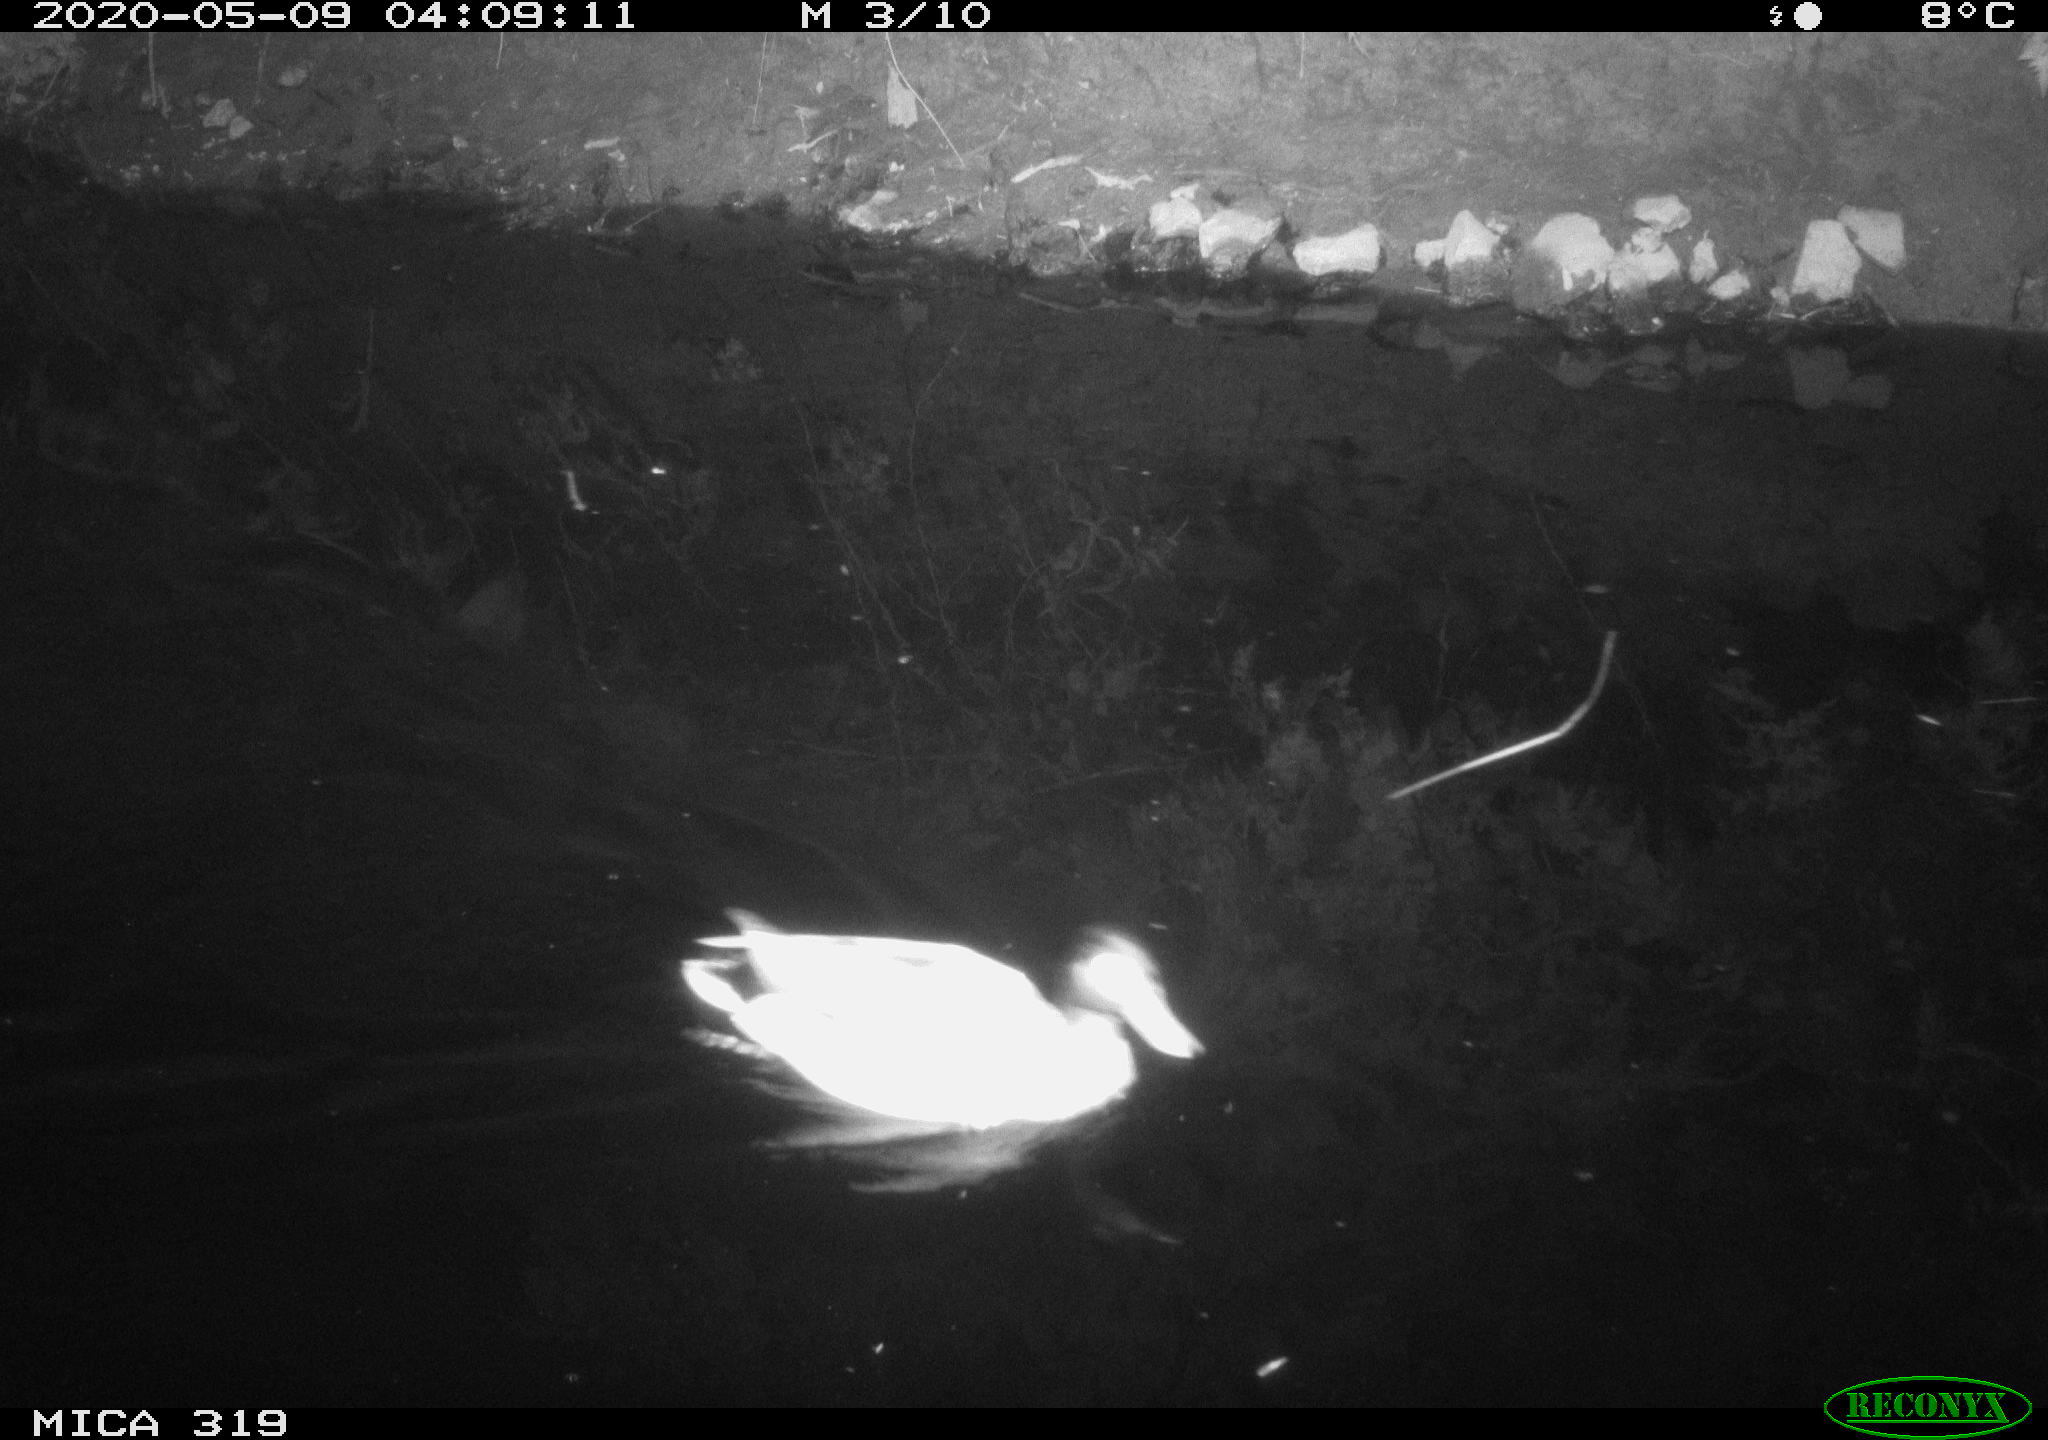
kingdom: Animalia
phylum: Chordata
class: Aves
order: Anseriformes
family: Anatidae
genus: Anas
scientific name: Anas platyrhynchos
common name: Mallard
